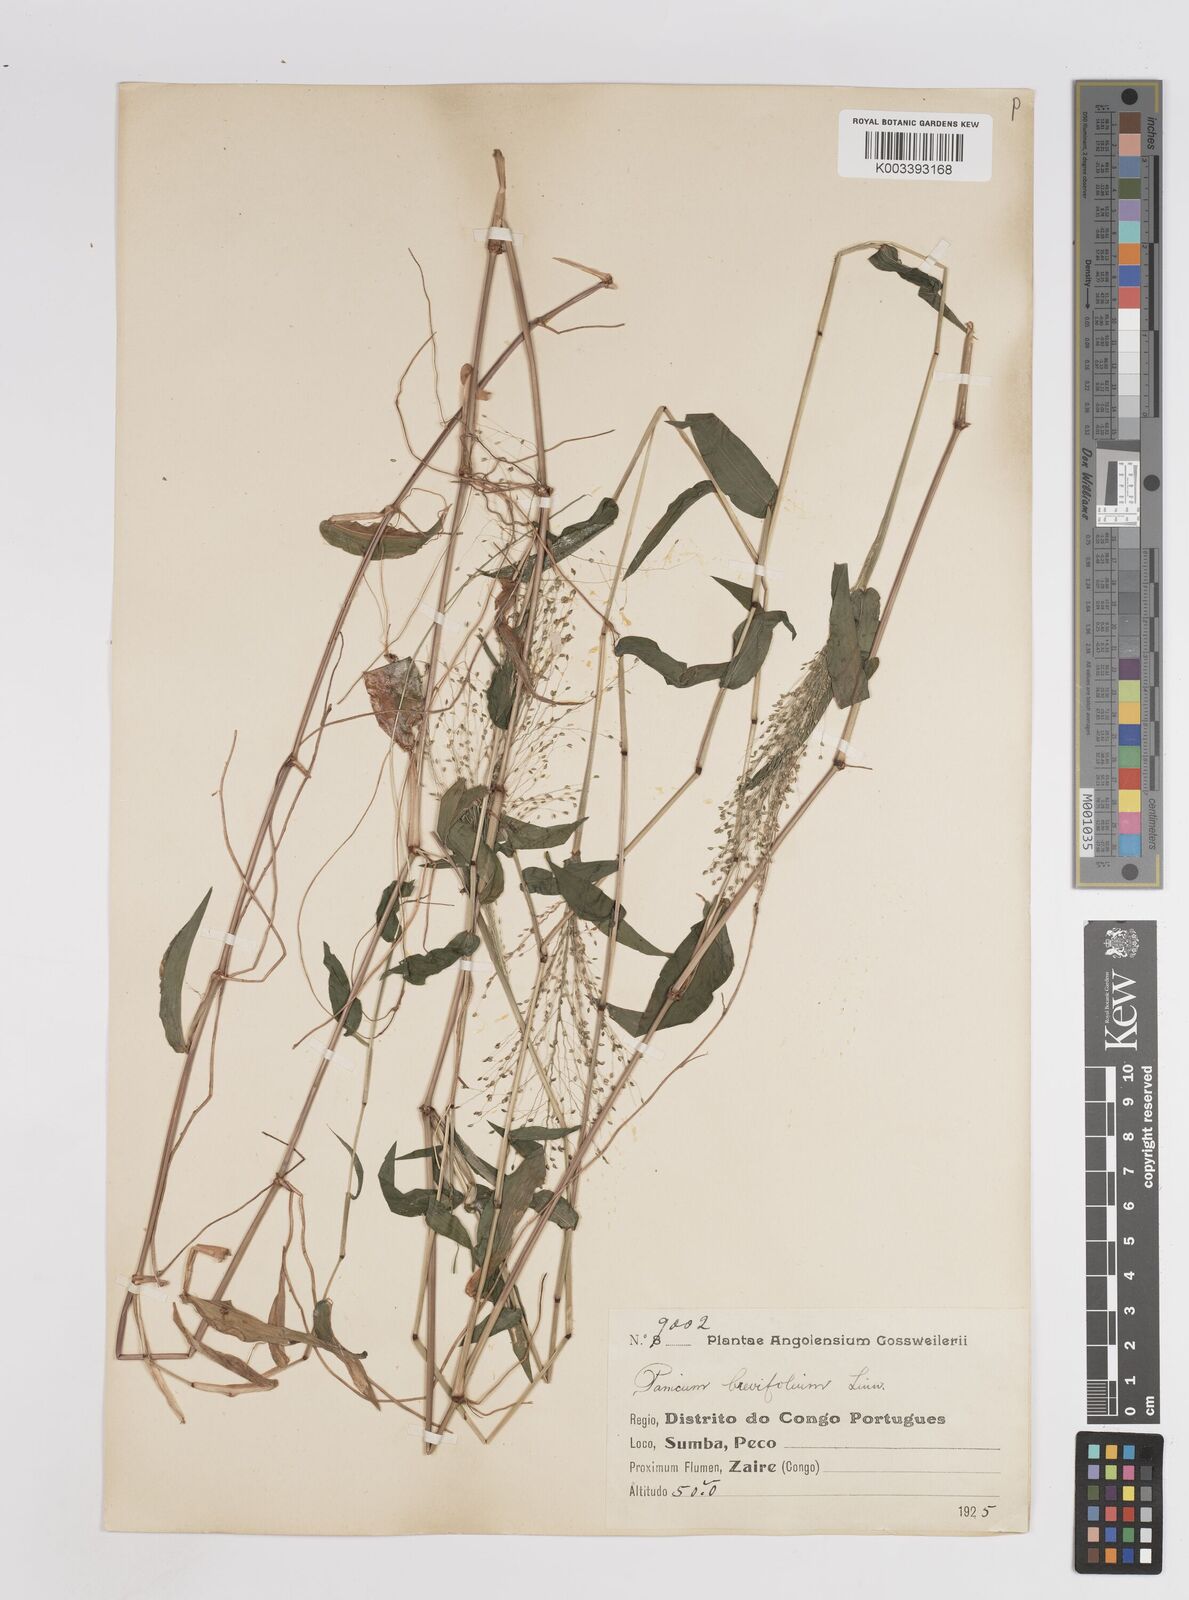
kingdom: Plantae
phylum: Tracheophyta
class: Liliopsida
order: Poales
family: Poaceae
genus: Panicum
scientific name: Panicum brevifolium
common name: Shortleaf panic grass
